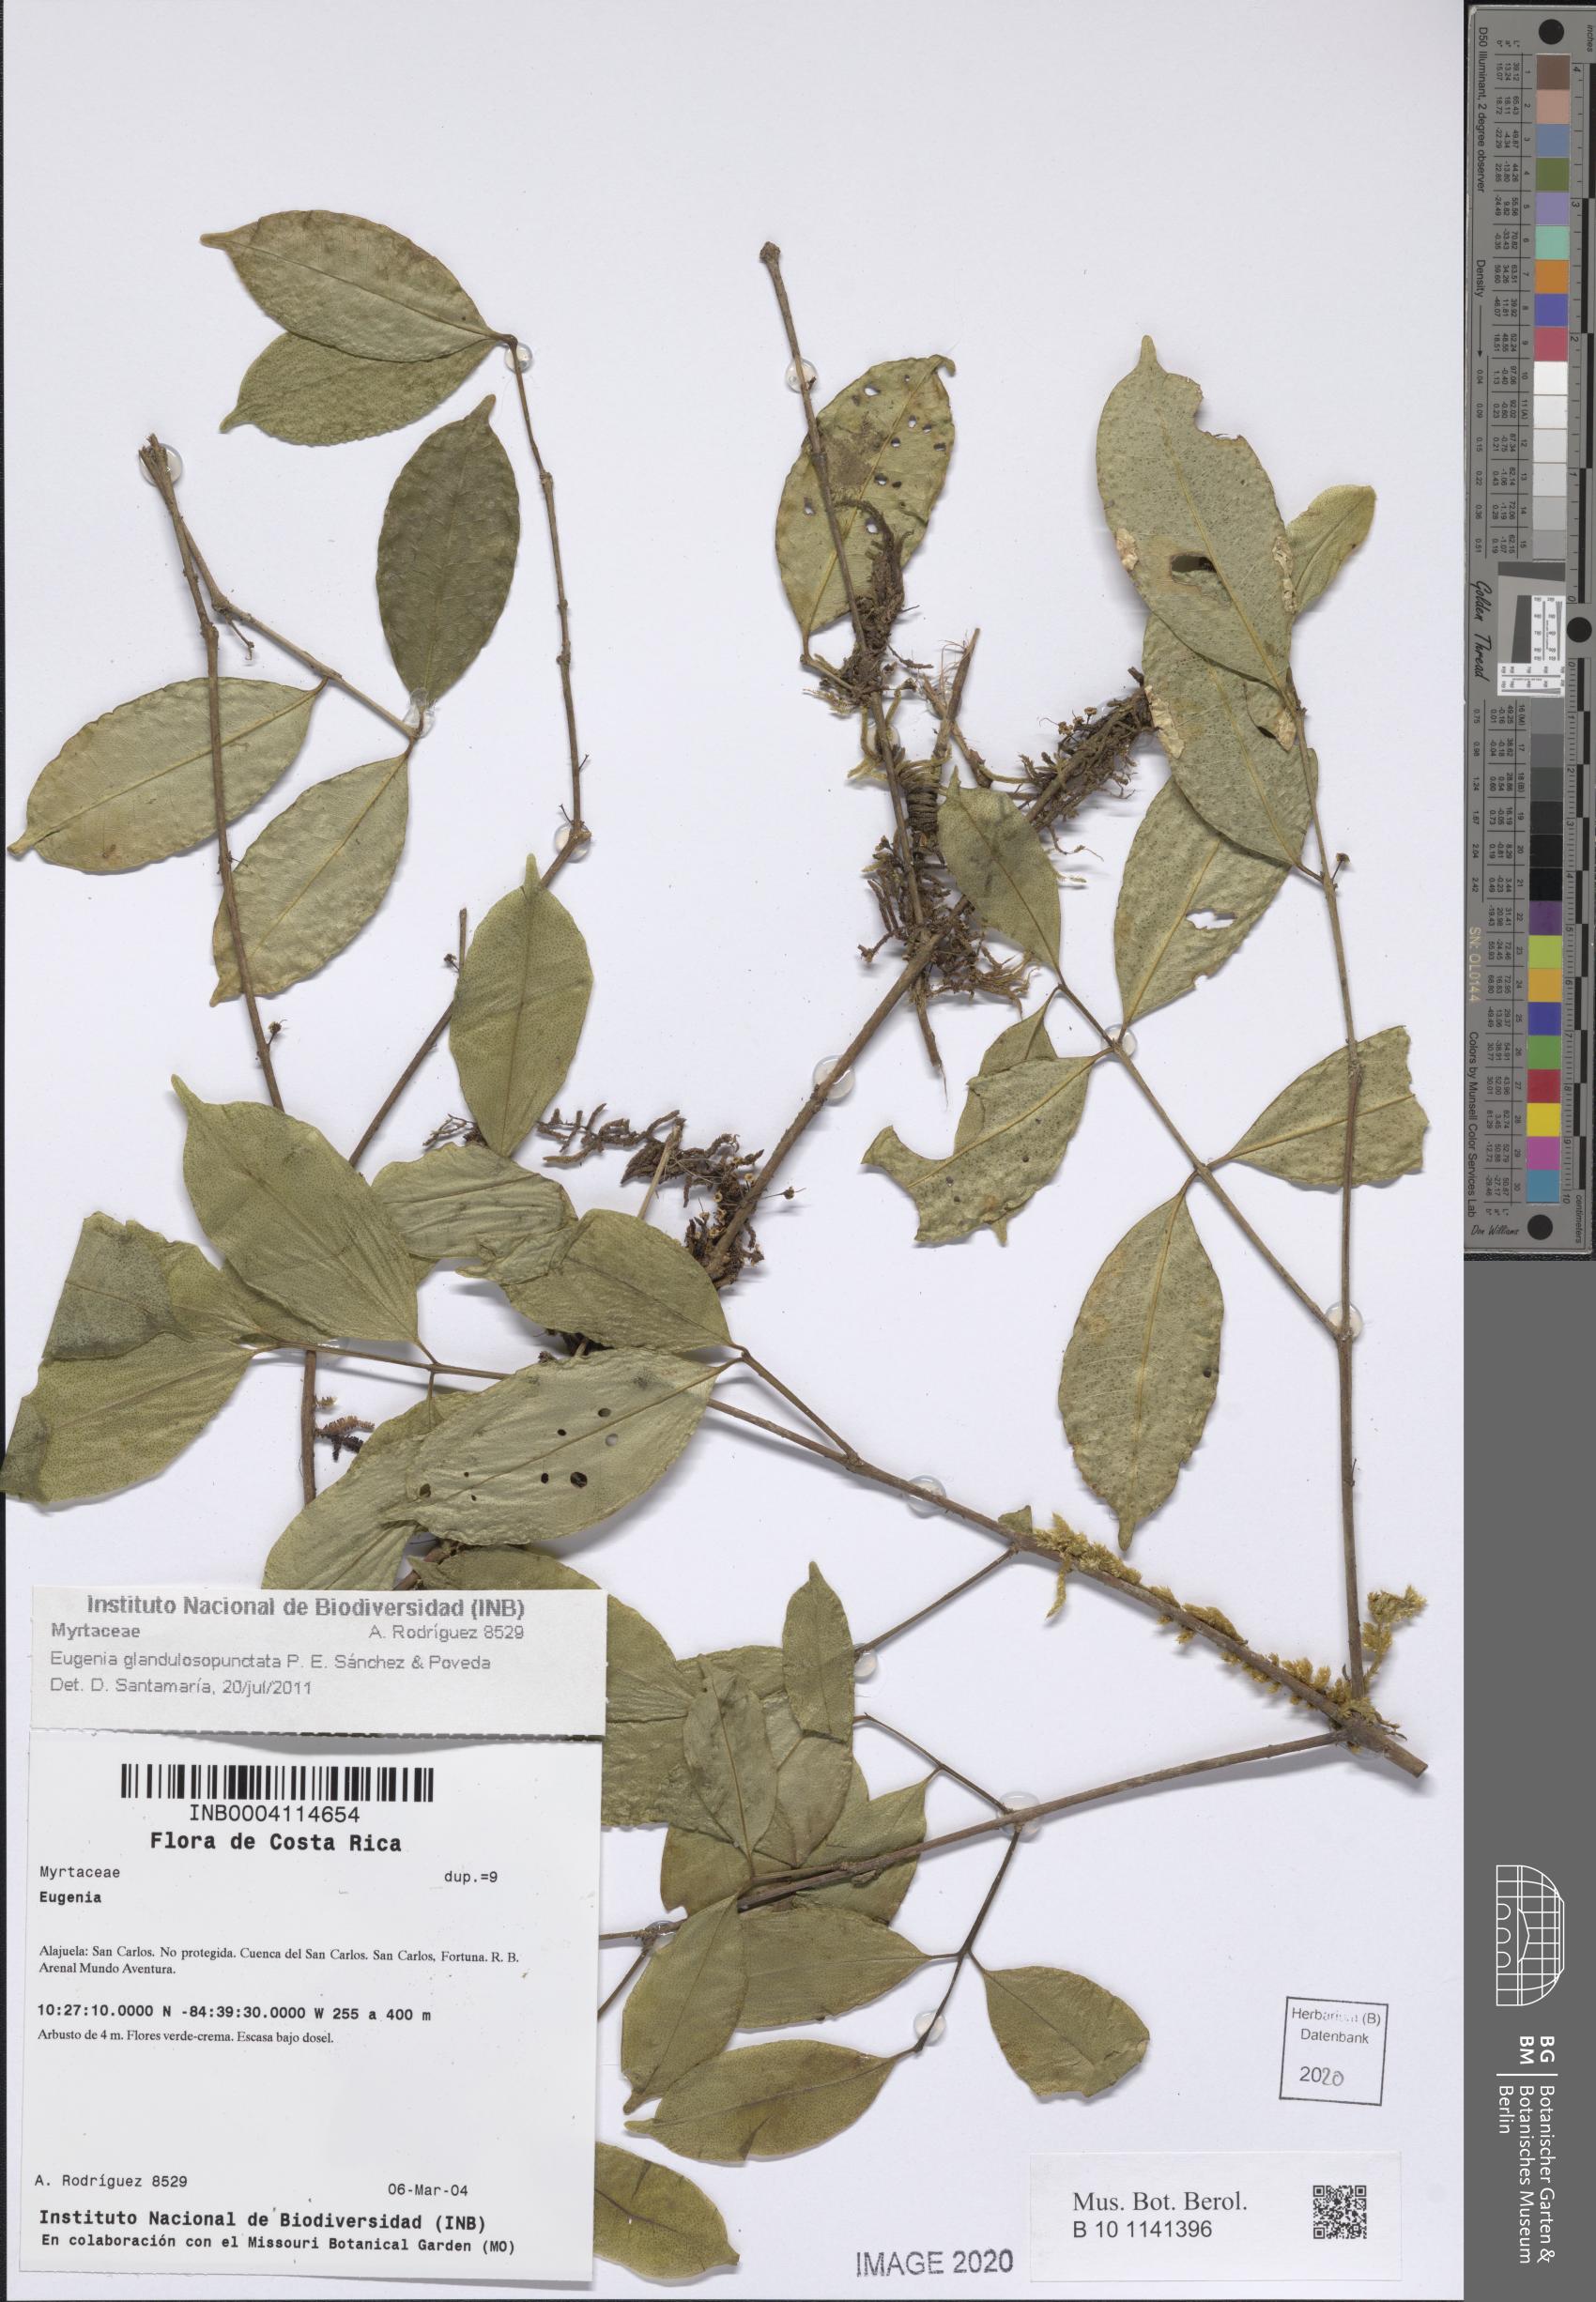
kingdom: Plantae
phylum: Tracheophyta
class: Magnoliopsida
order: Myrtales
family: Myrtaceae
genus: Eugenia
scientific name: Eugenia
